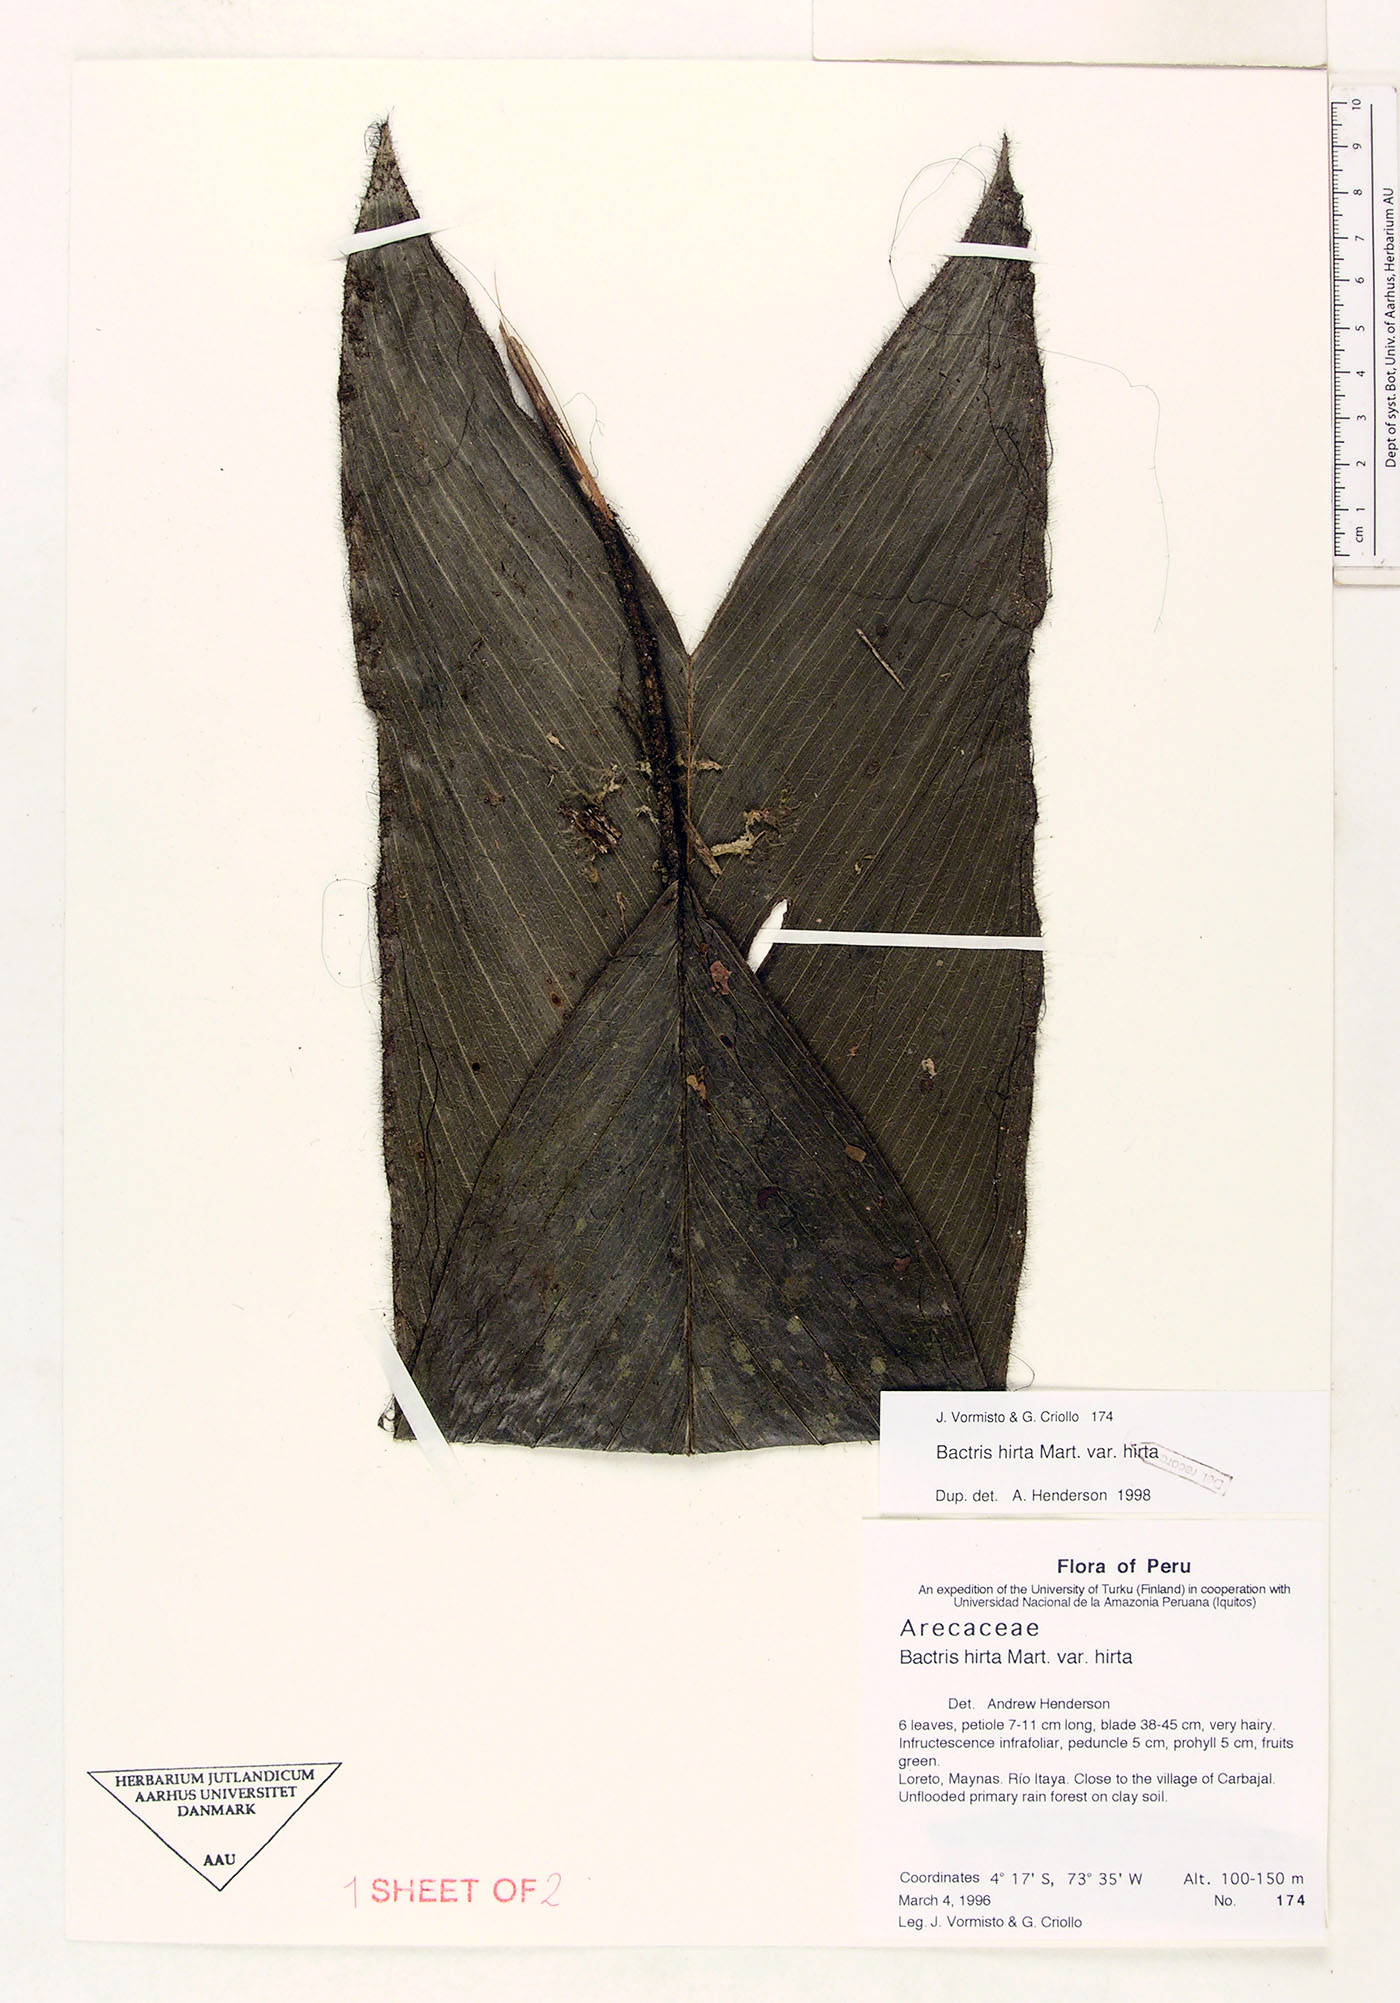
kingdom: Plantae
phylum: Tracheophyta
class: Liliopsida
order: Arecales
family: Arecaceae
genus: Bactris
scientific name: Bactris hirta
